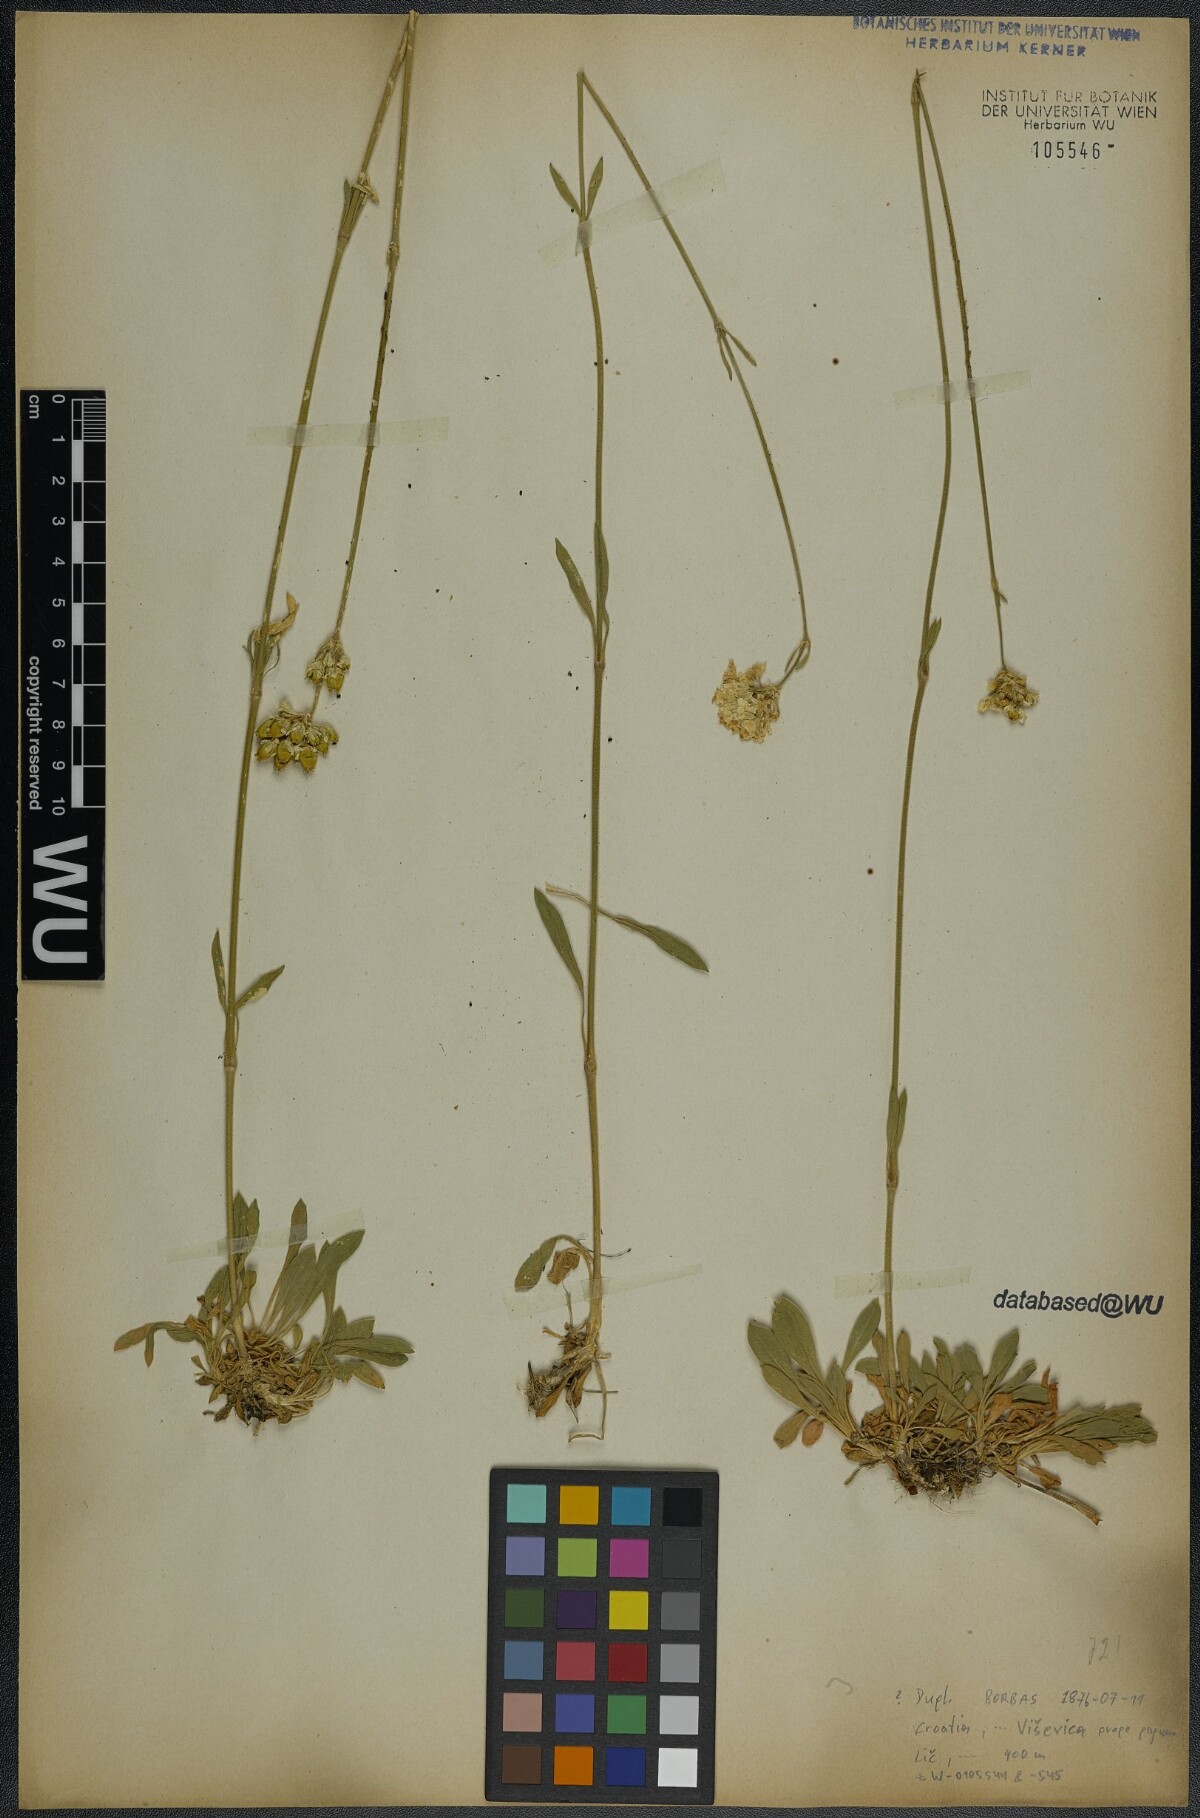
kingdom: Plantae
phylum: Tracheophyta
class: Magnoliopsida
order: Caryophyllales
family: Caryophyllaceae
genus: Silene
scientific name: Silene sendtneri
